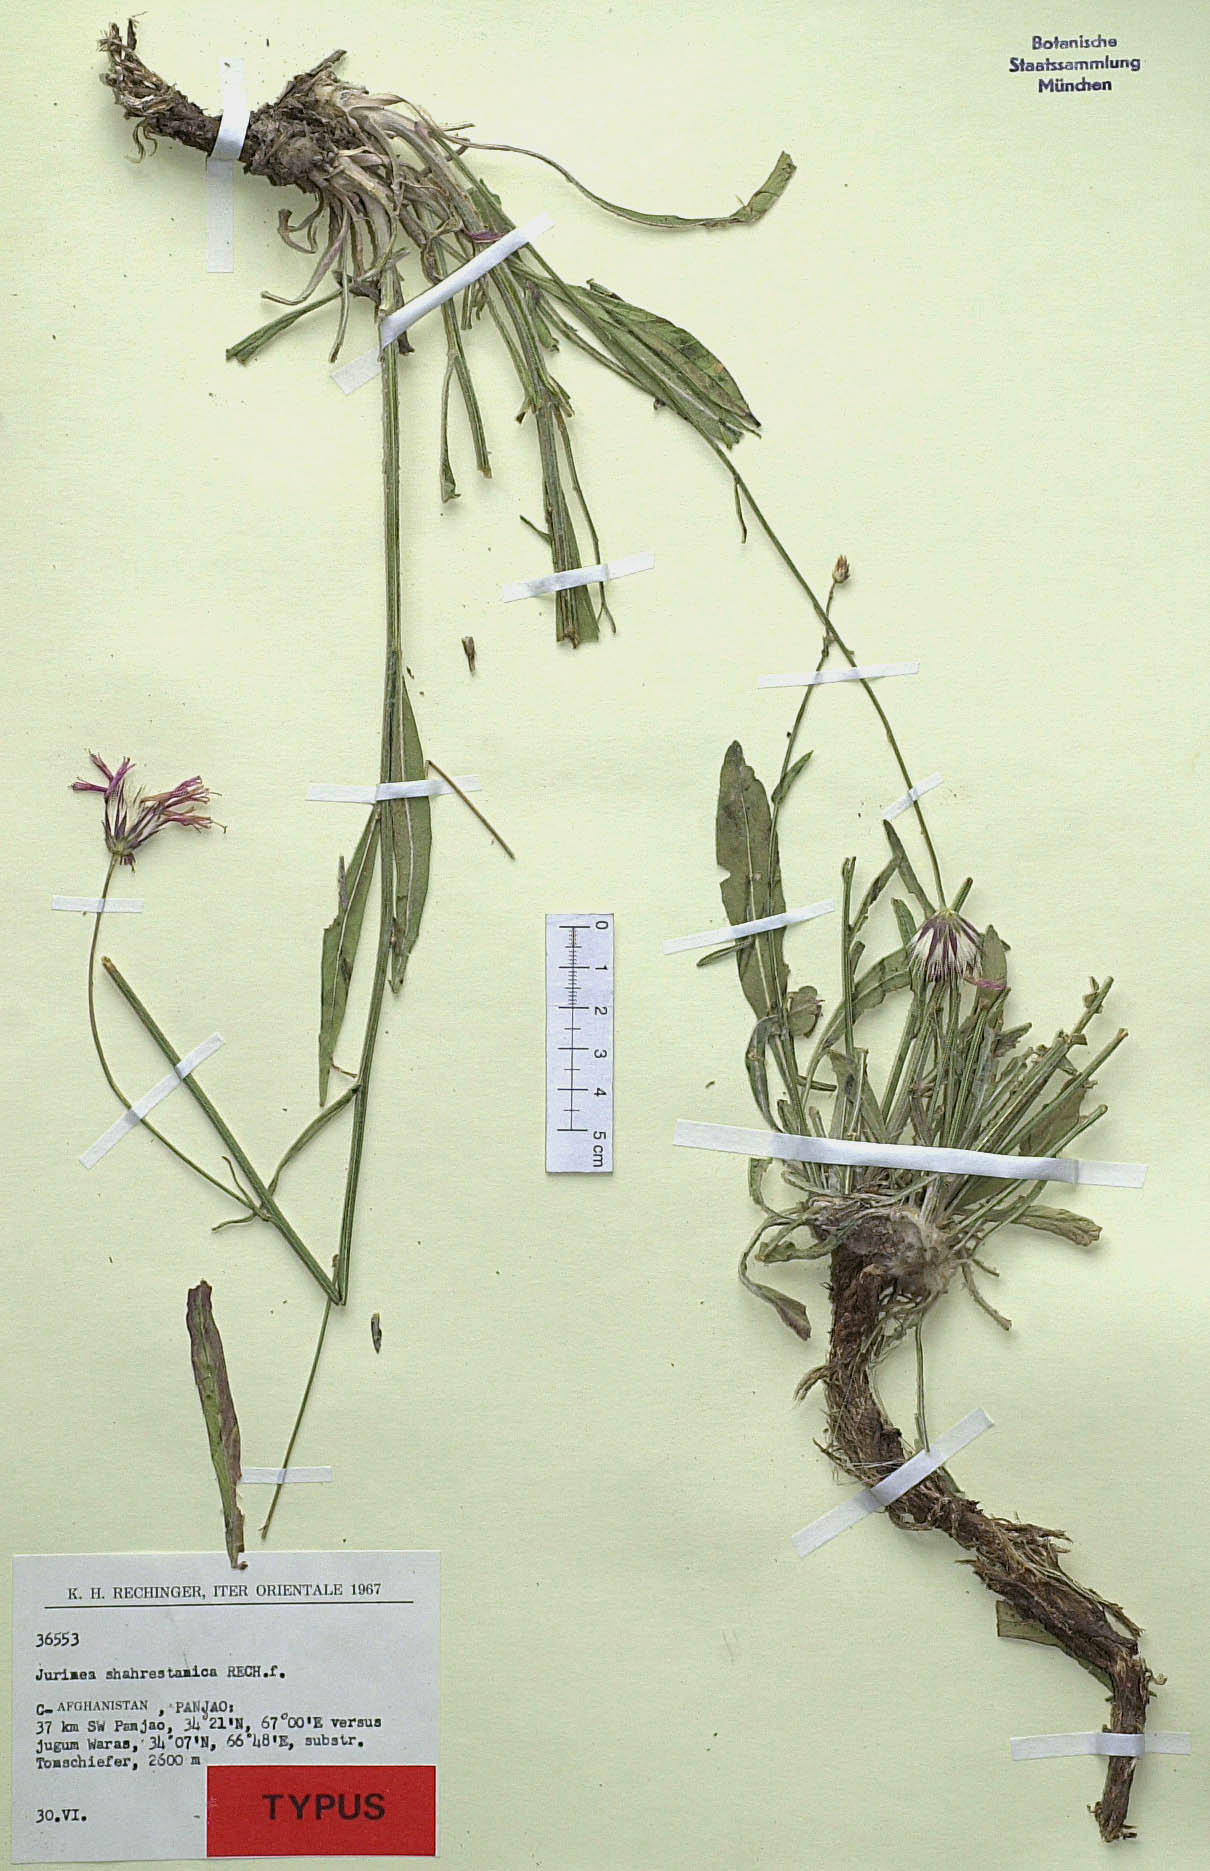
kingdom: Plantae
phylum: Tracheophyta
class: Magnoliopsida
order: Asterales
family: Asteraceae
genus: Jurinea
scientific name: Jurinea shahrestanica
